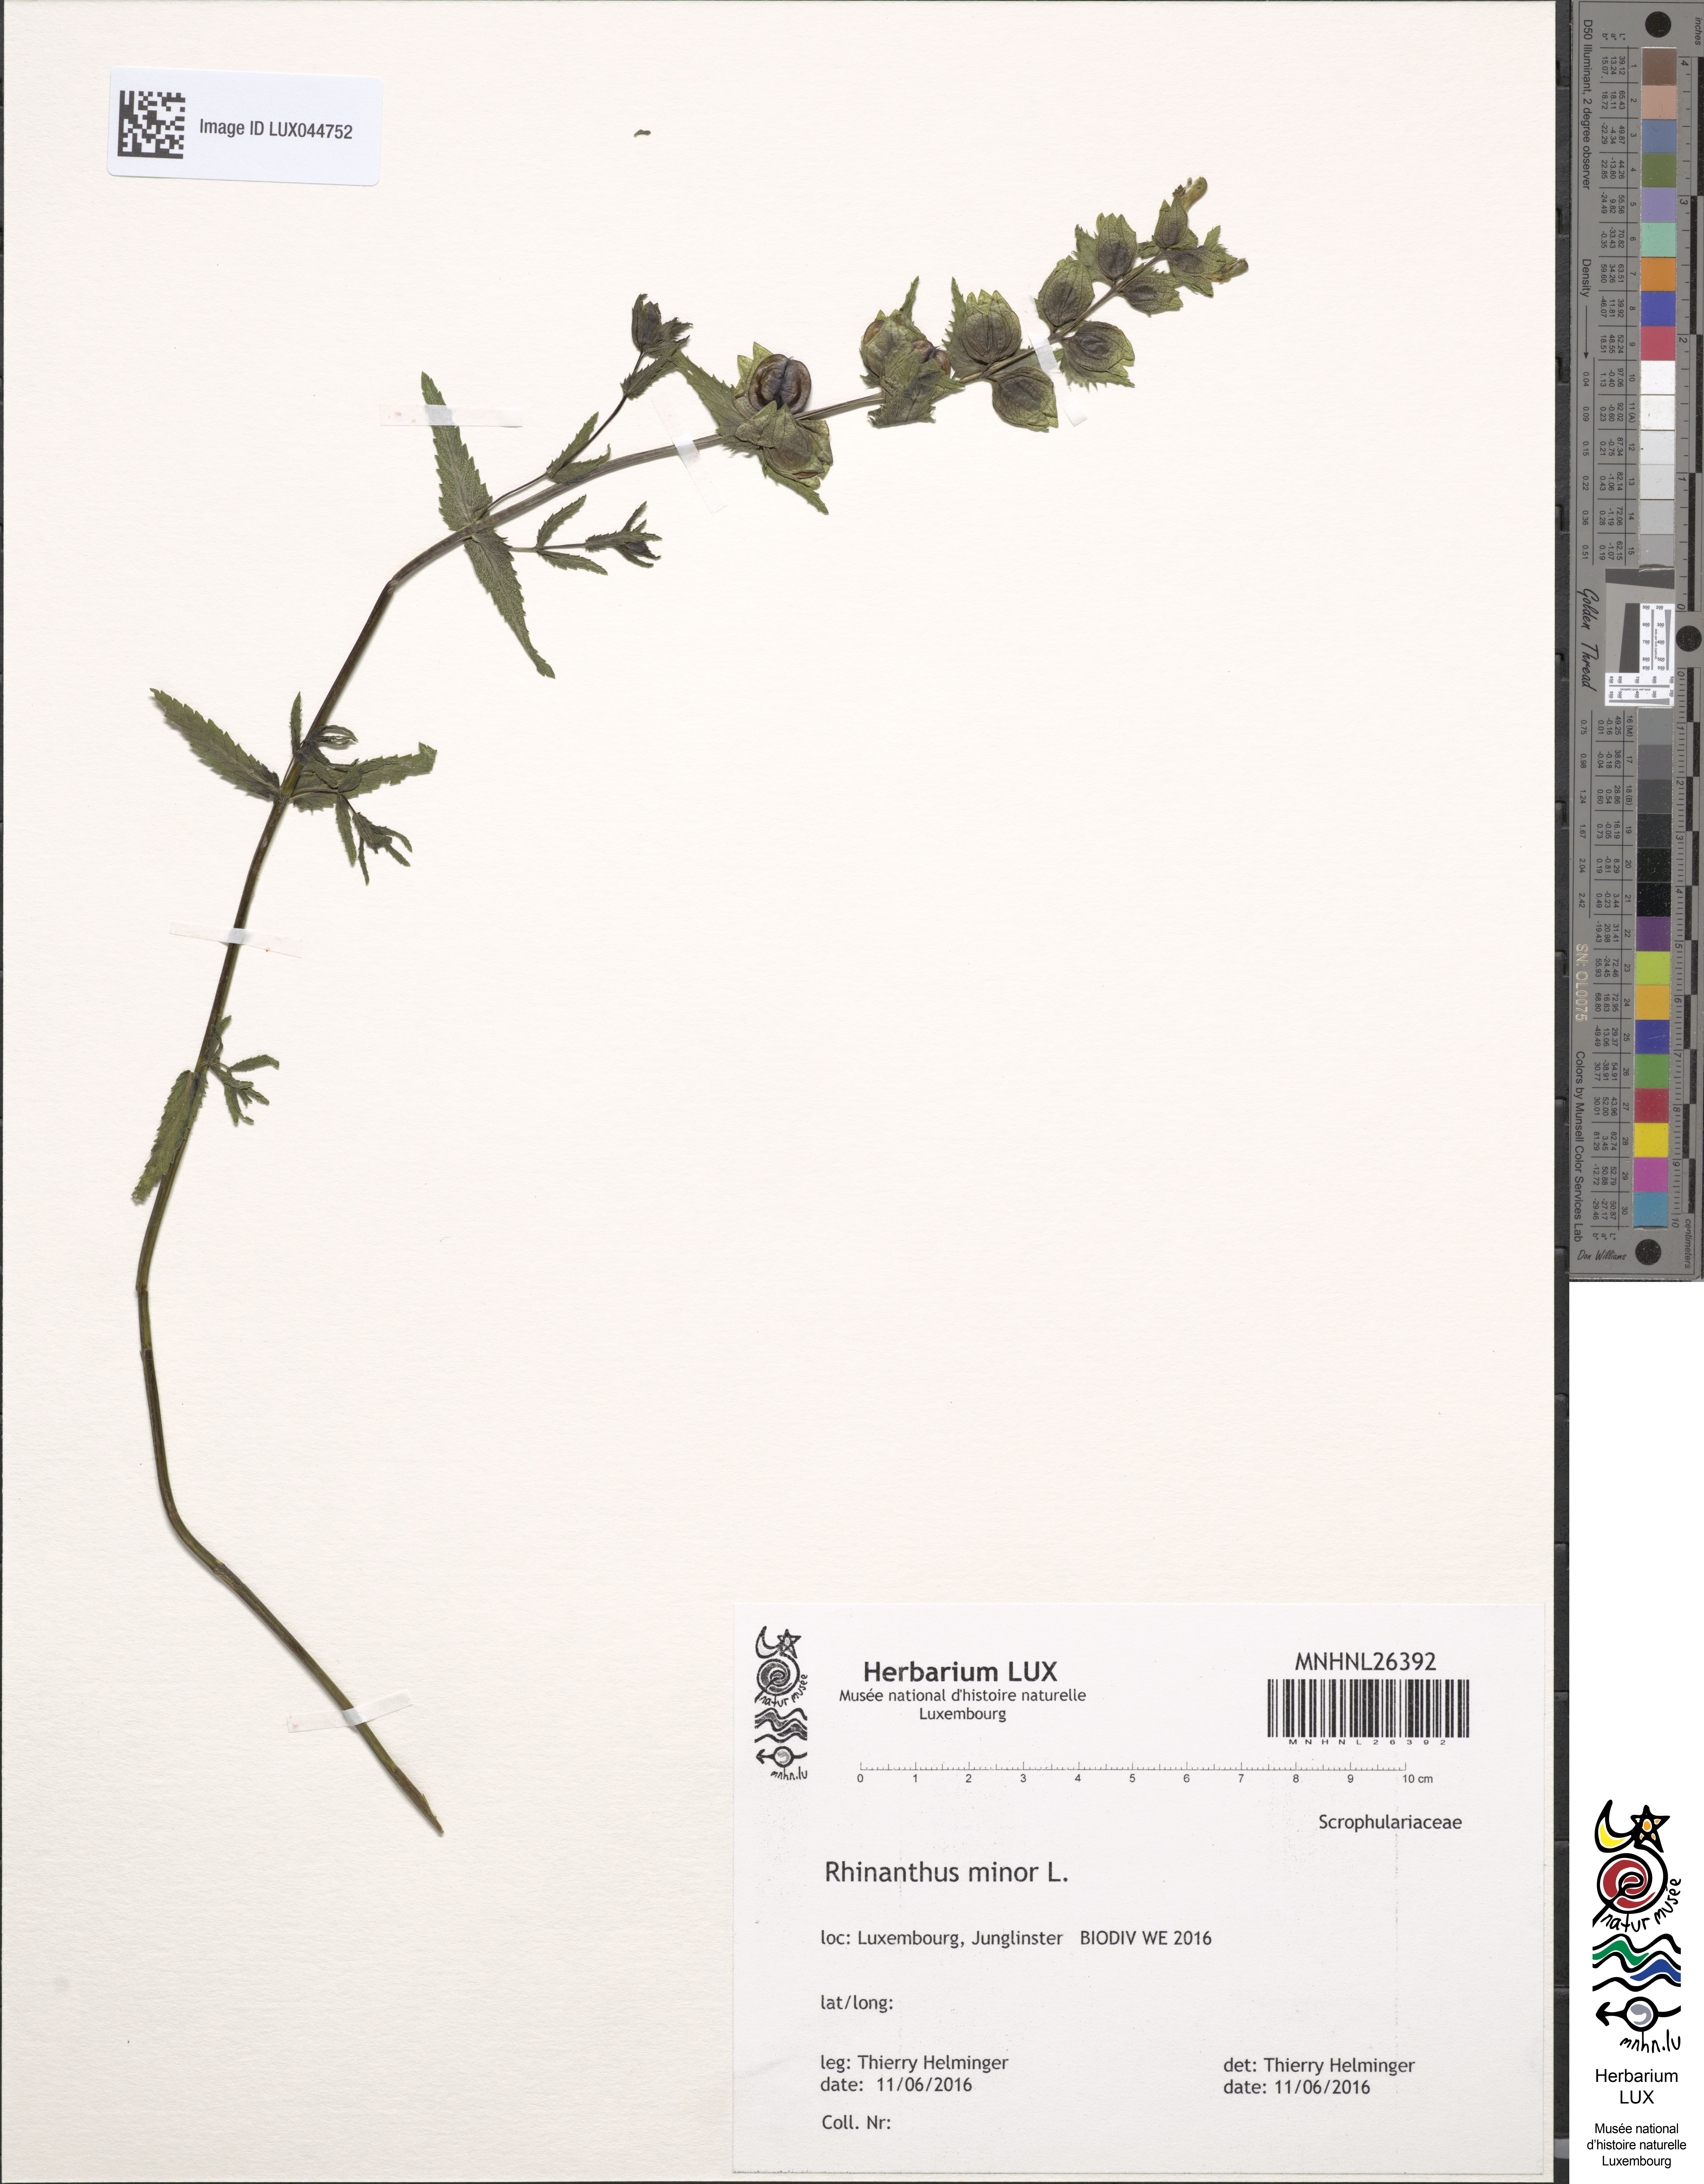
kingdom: Plantae
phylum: Tracheophyta
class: Magnoliopsida
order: Lamiales
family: Orobanchaceae
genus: Rhinanthus
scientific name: Rhinanthus minor
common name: Yellow-rattle
